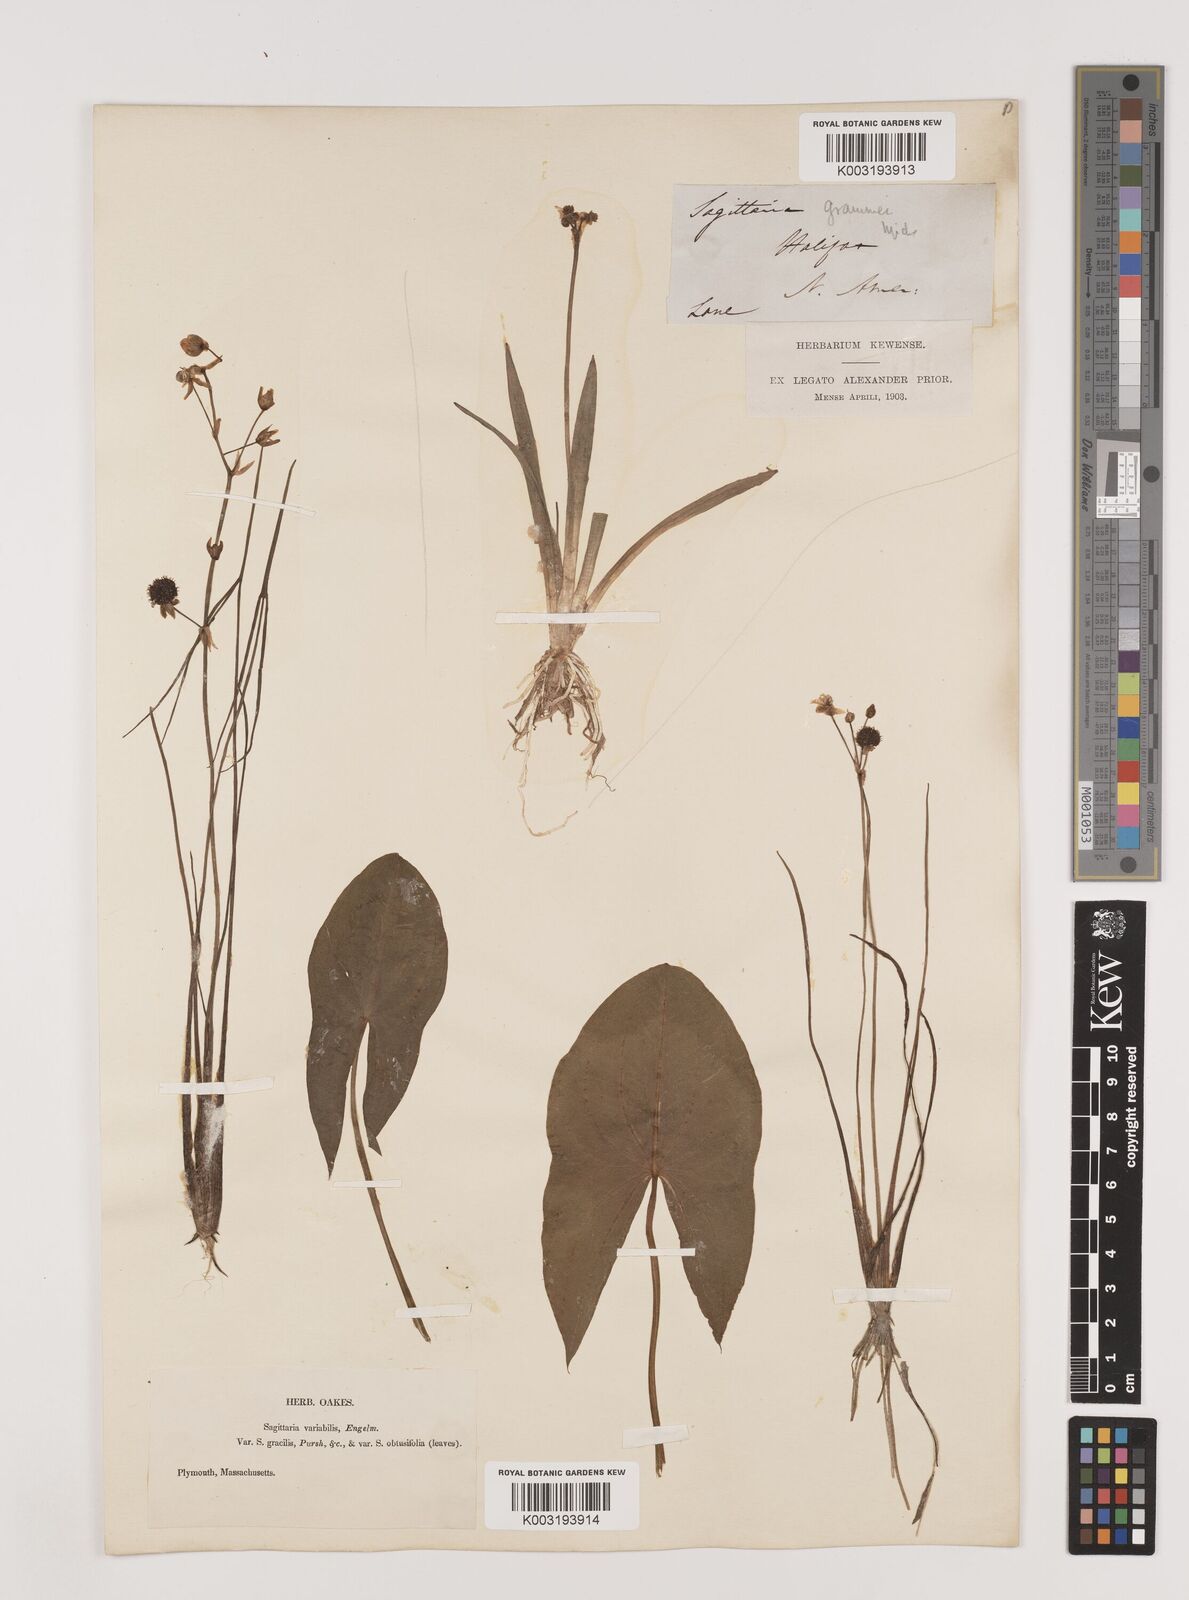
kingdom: Plantae
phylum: Tracheophyta
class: Liliopsida
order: Alismatales
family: Alismataceae
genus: Sagittaria
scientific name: Sagittaria latifolia
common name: Duck-potato
